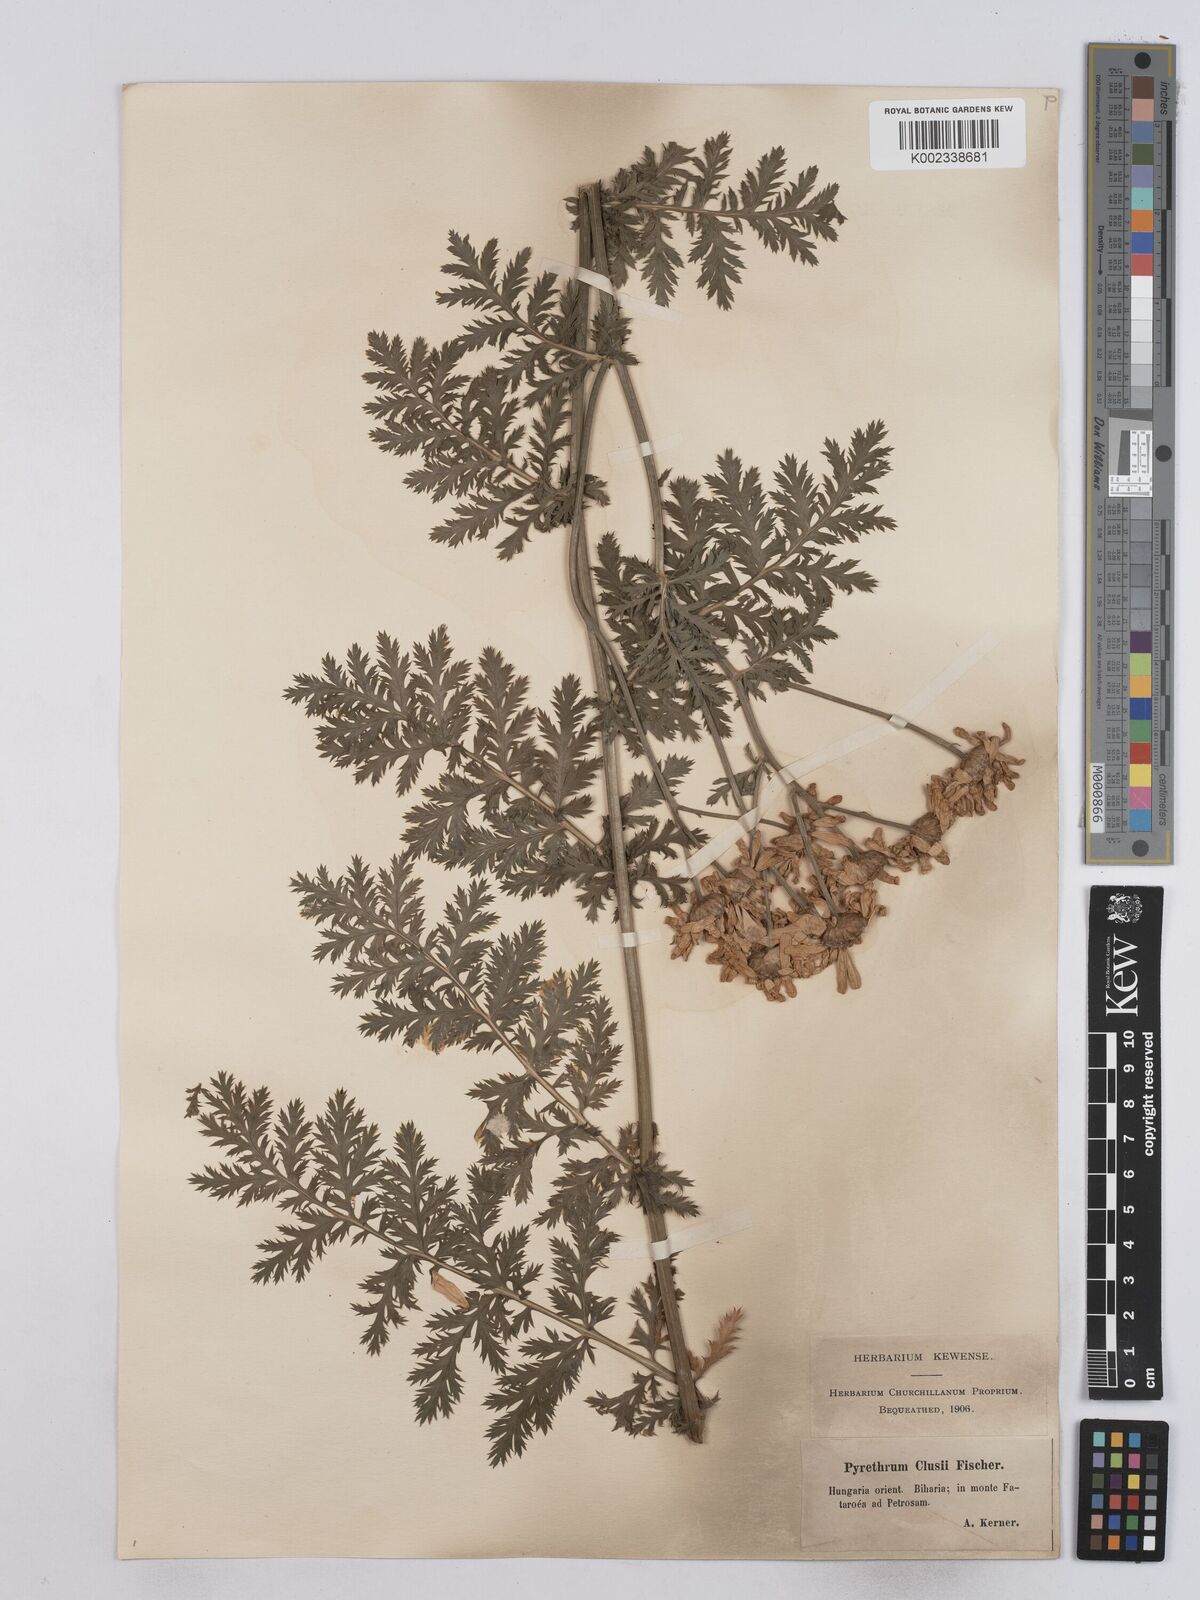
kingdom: Plantae
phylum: Tracheophyta
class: Magnoliopsida
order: Asterales
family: Asteraceae
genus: Tanacetum
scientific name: Tanacetum corymbosum
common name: Scentless feverfew
